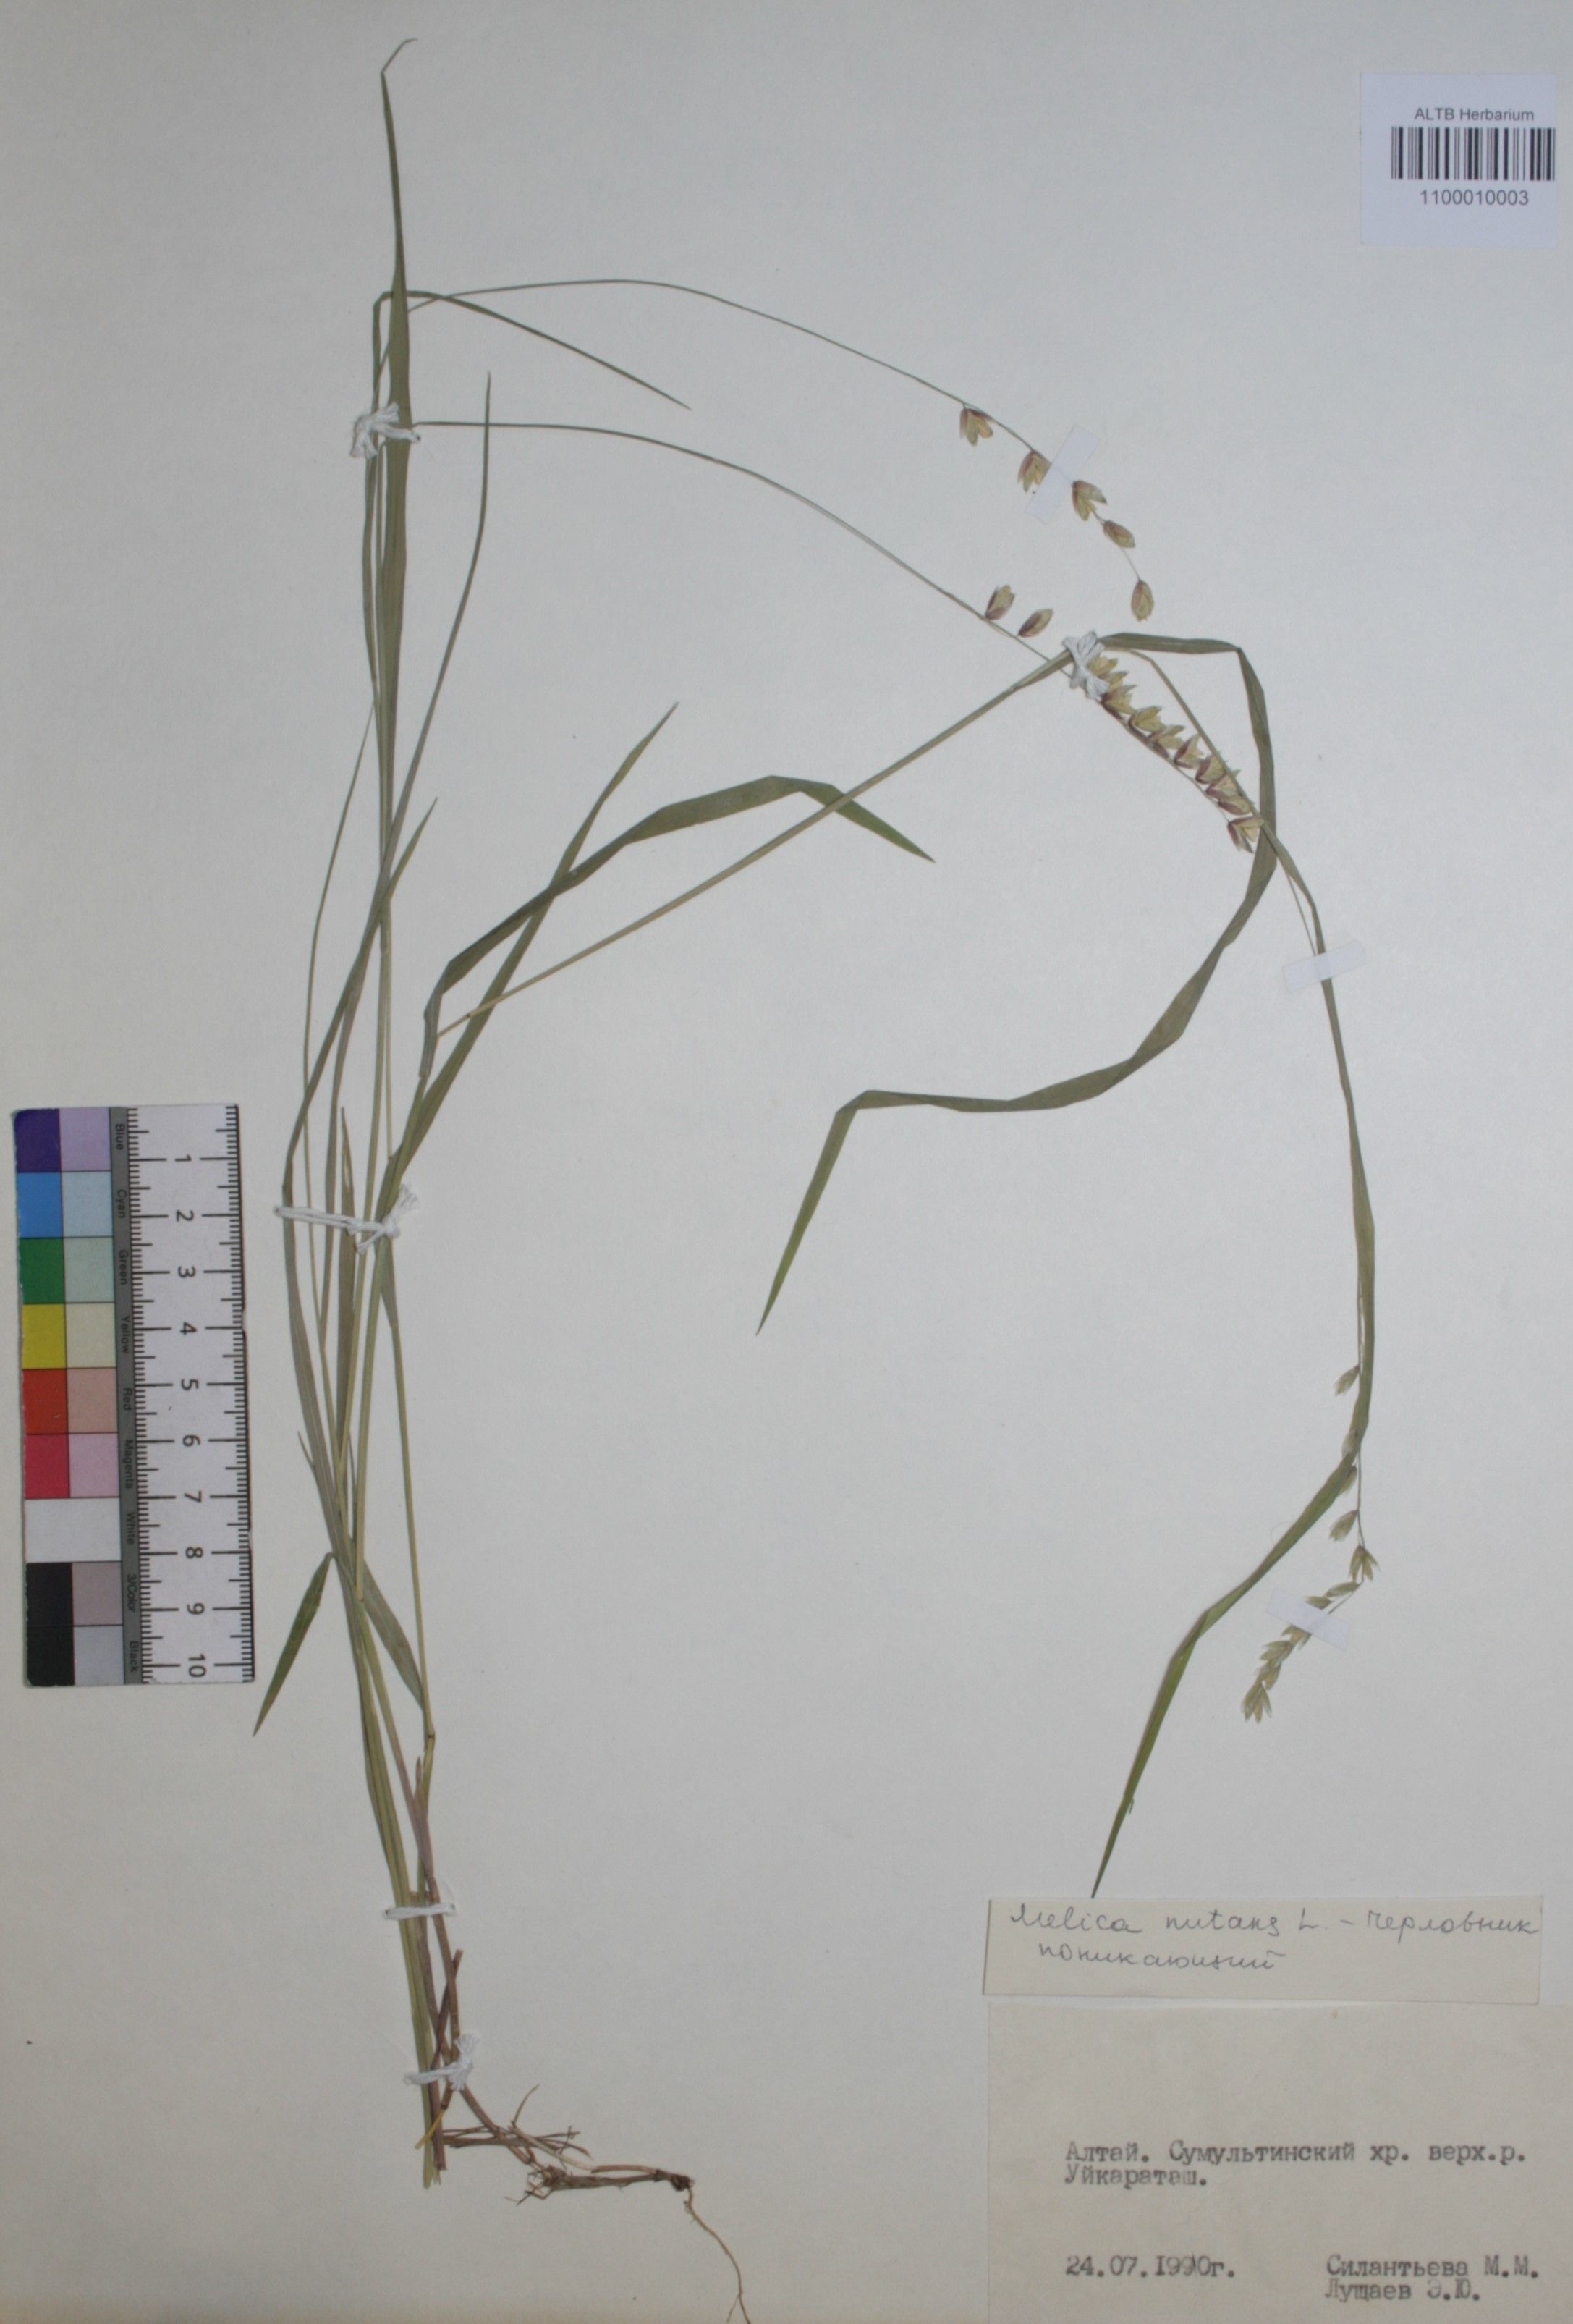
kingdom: Plantae
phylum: Tracheophyta
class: Magnoliopsida
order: Ranunculales
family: Papaveraceae
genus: Corydalis
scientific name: Corydalis bracteata
